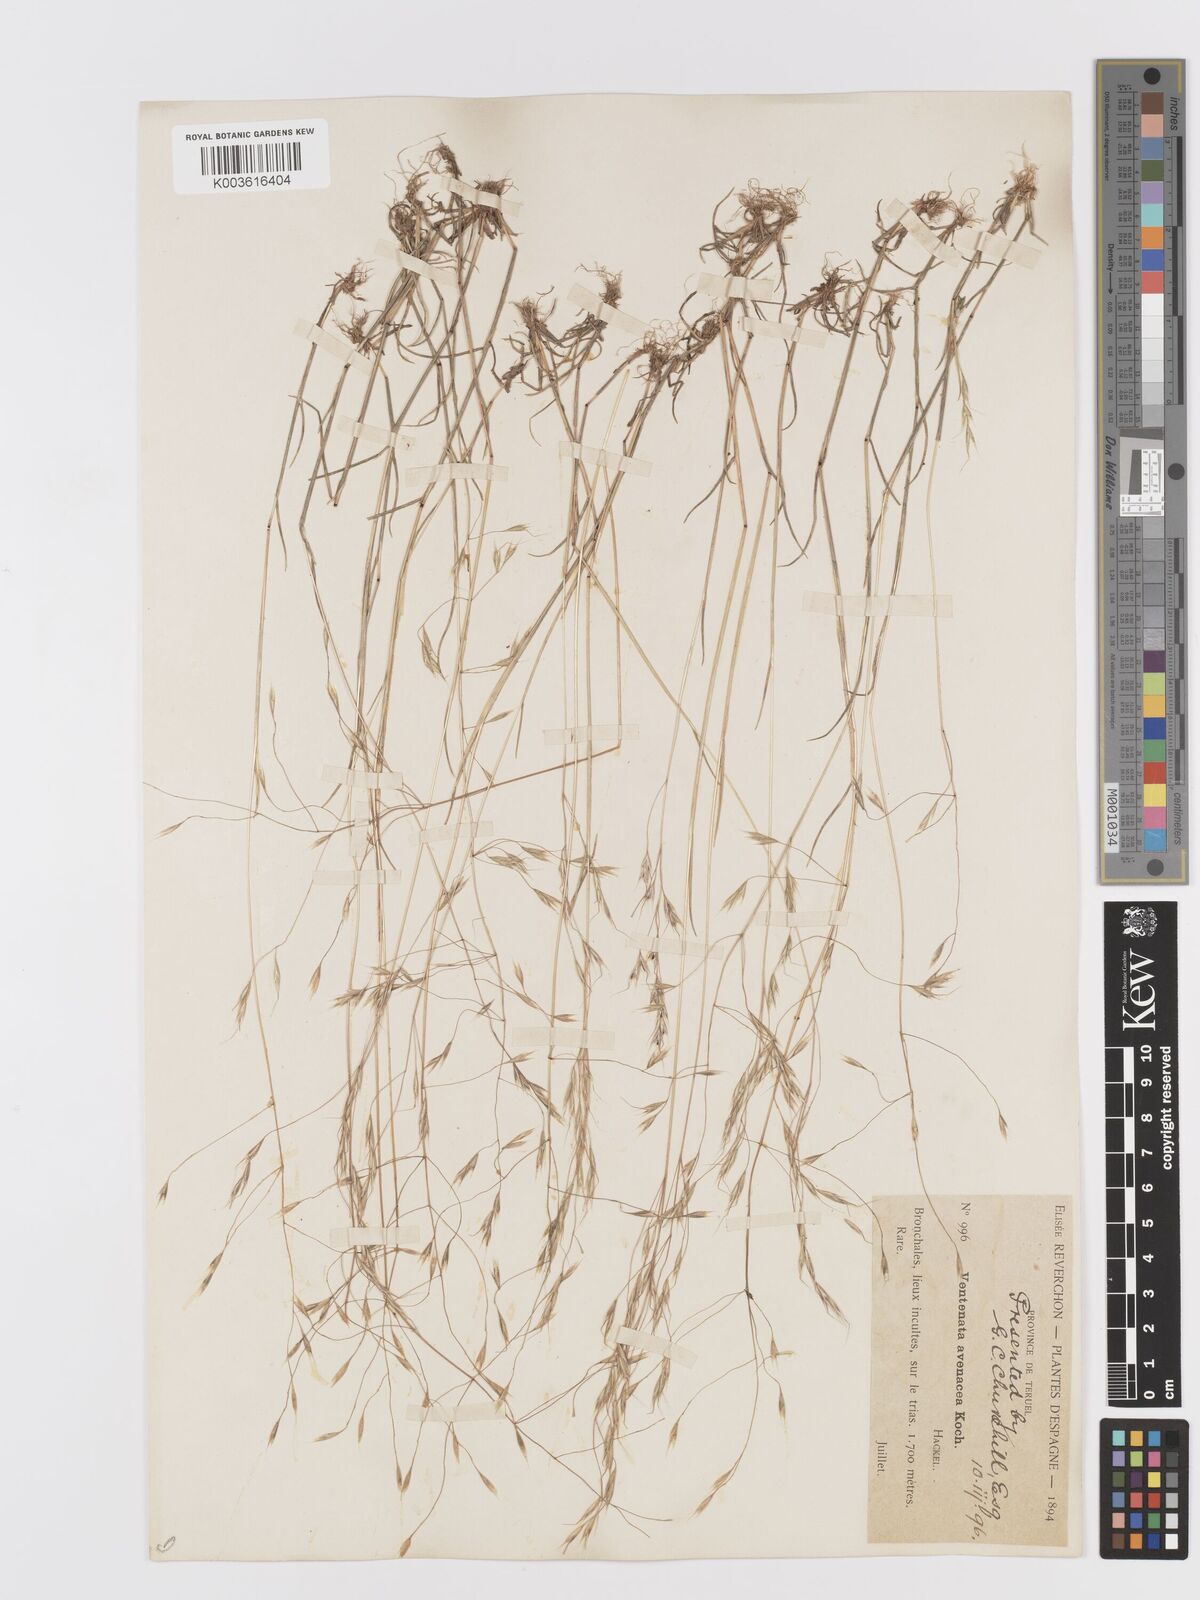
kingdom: Plantae
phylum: Tracheophyta
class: Liliopsida
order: Poales
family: Poaceae
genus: Ventenata
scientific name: Ventenata dubia
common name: North africa grass
